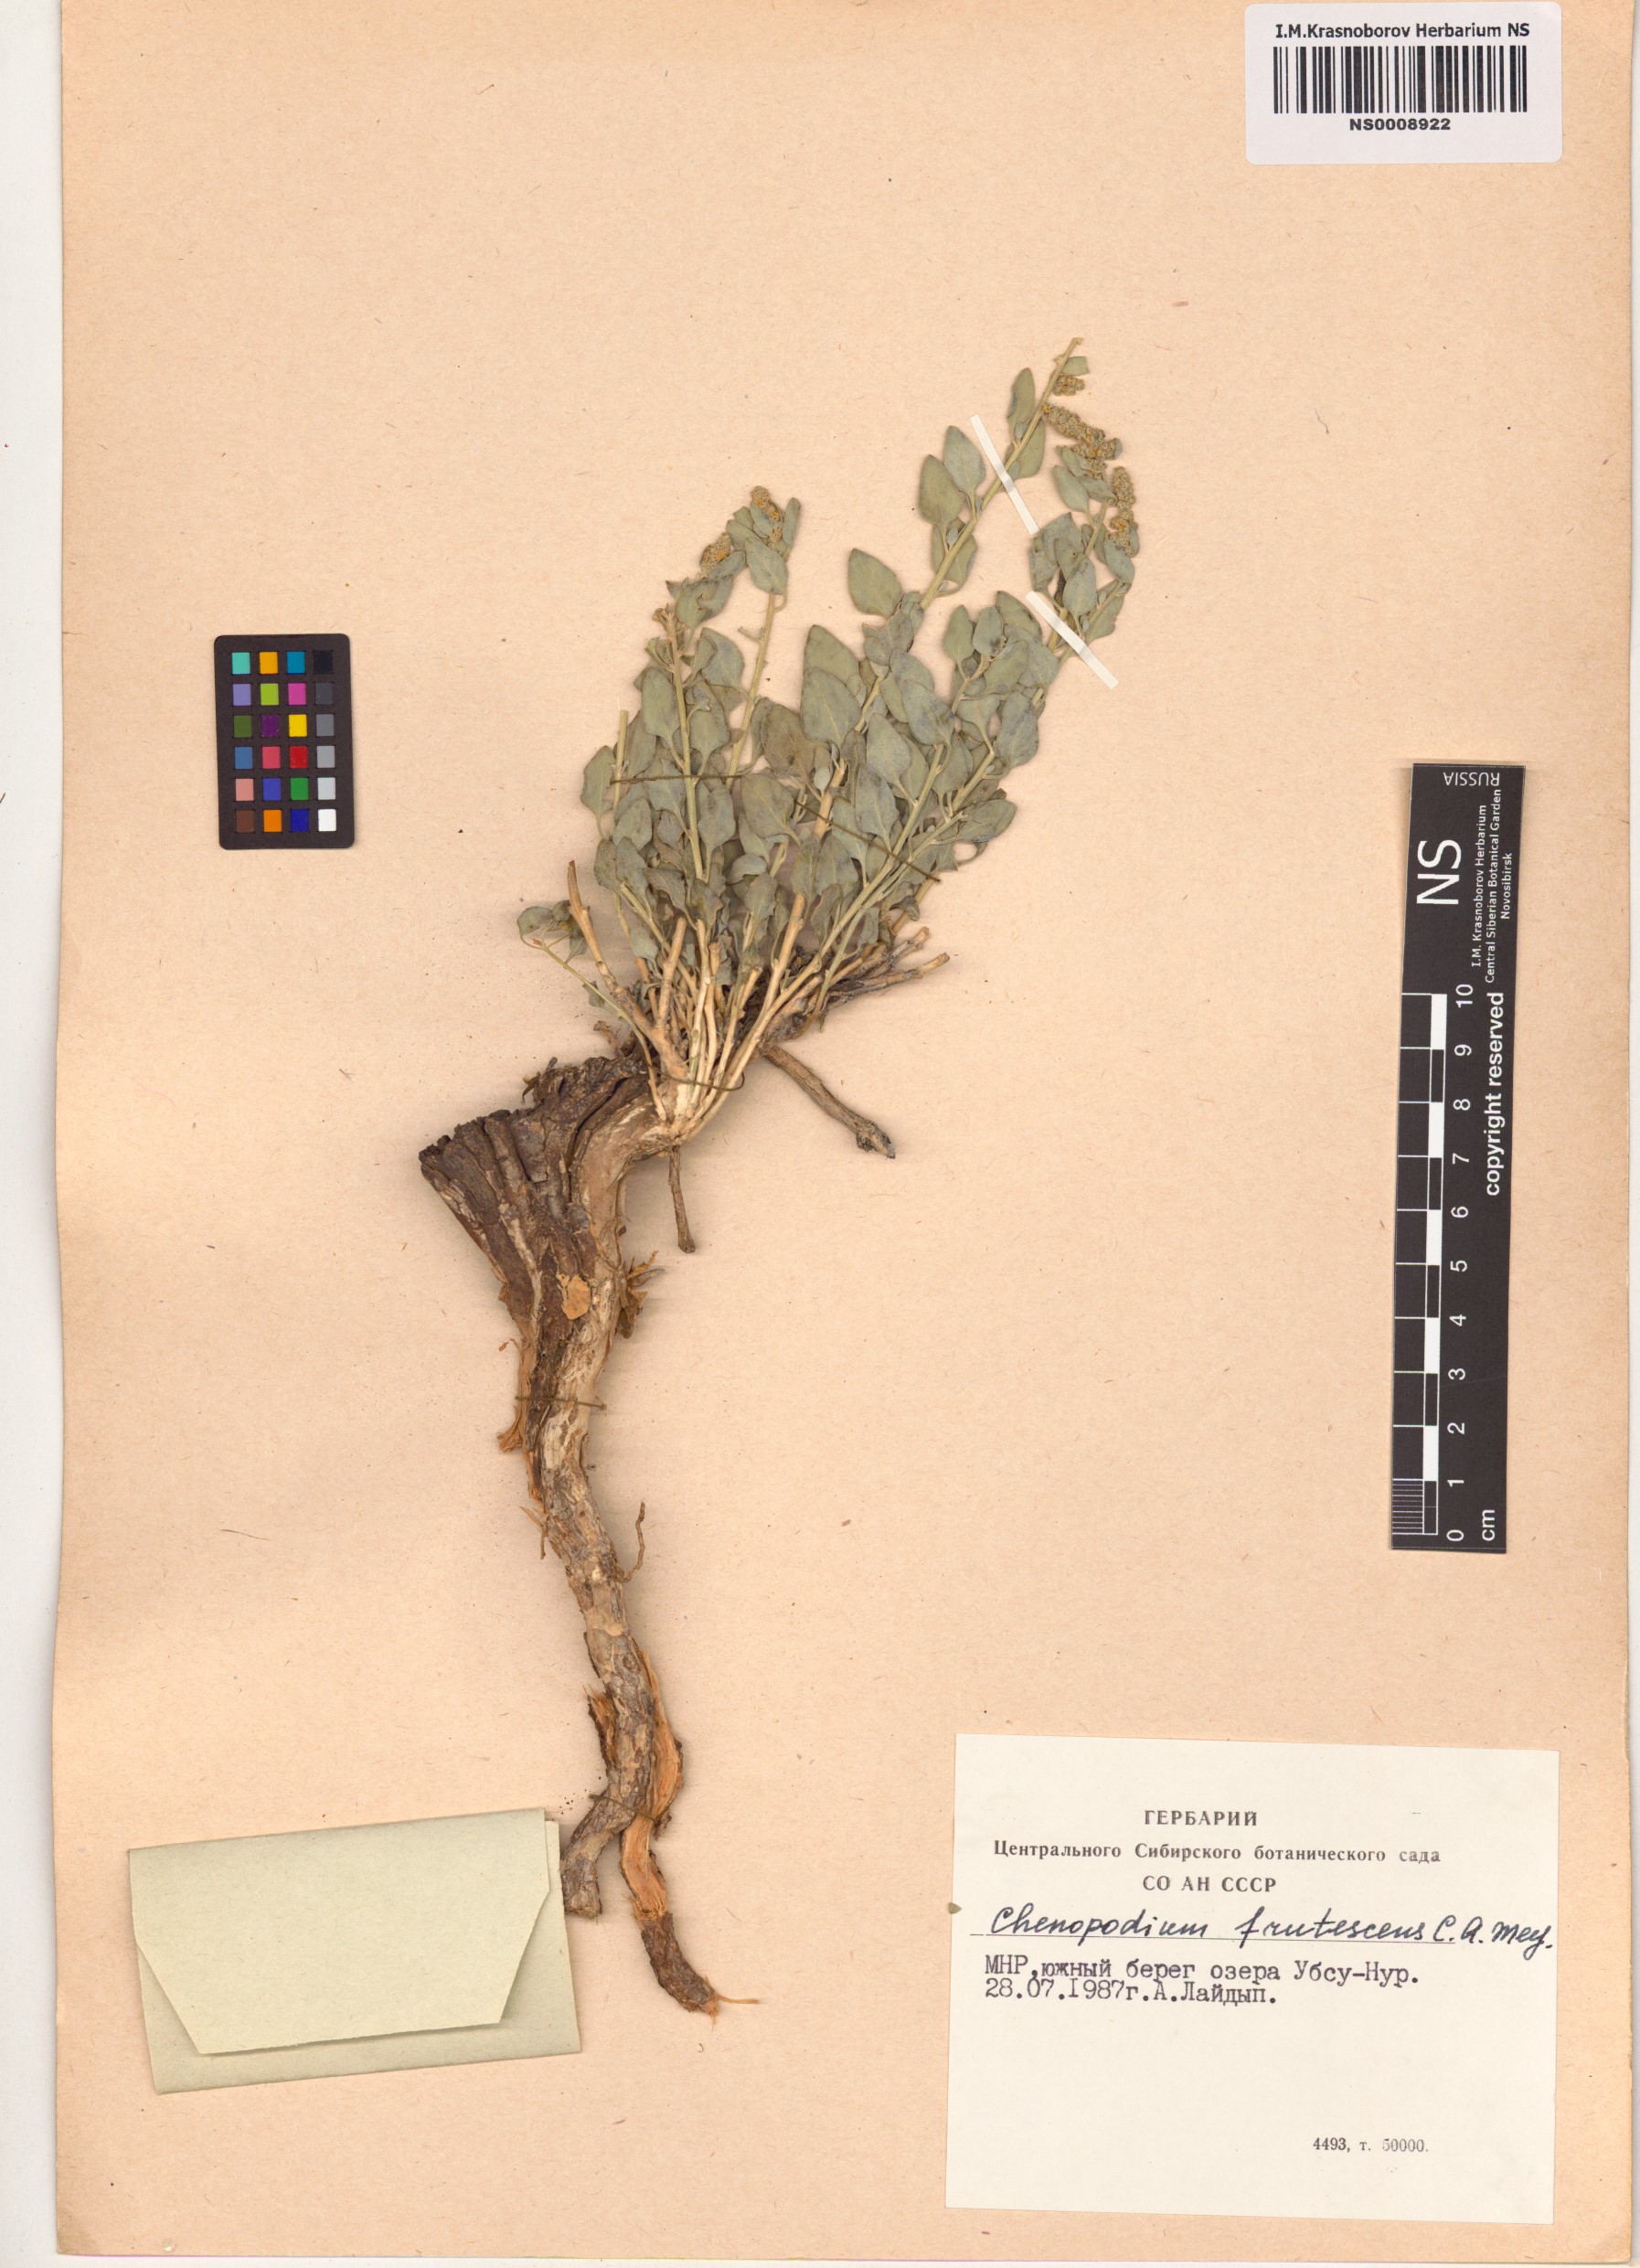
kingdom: Plantae
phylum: Tracheophyta
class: Magnoliopsida
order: Caryophyllales
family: Amaranthaceae
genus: Chenopodium
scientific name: Chenopodium frutescens
